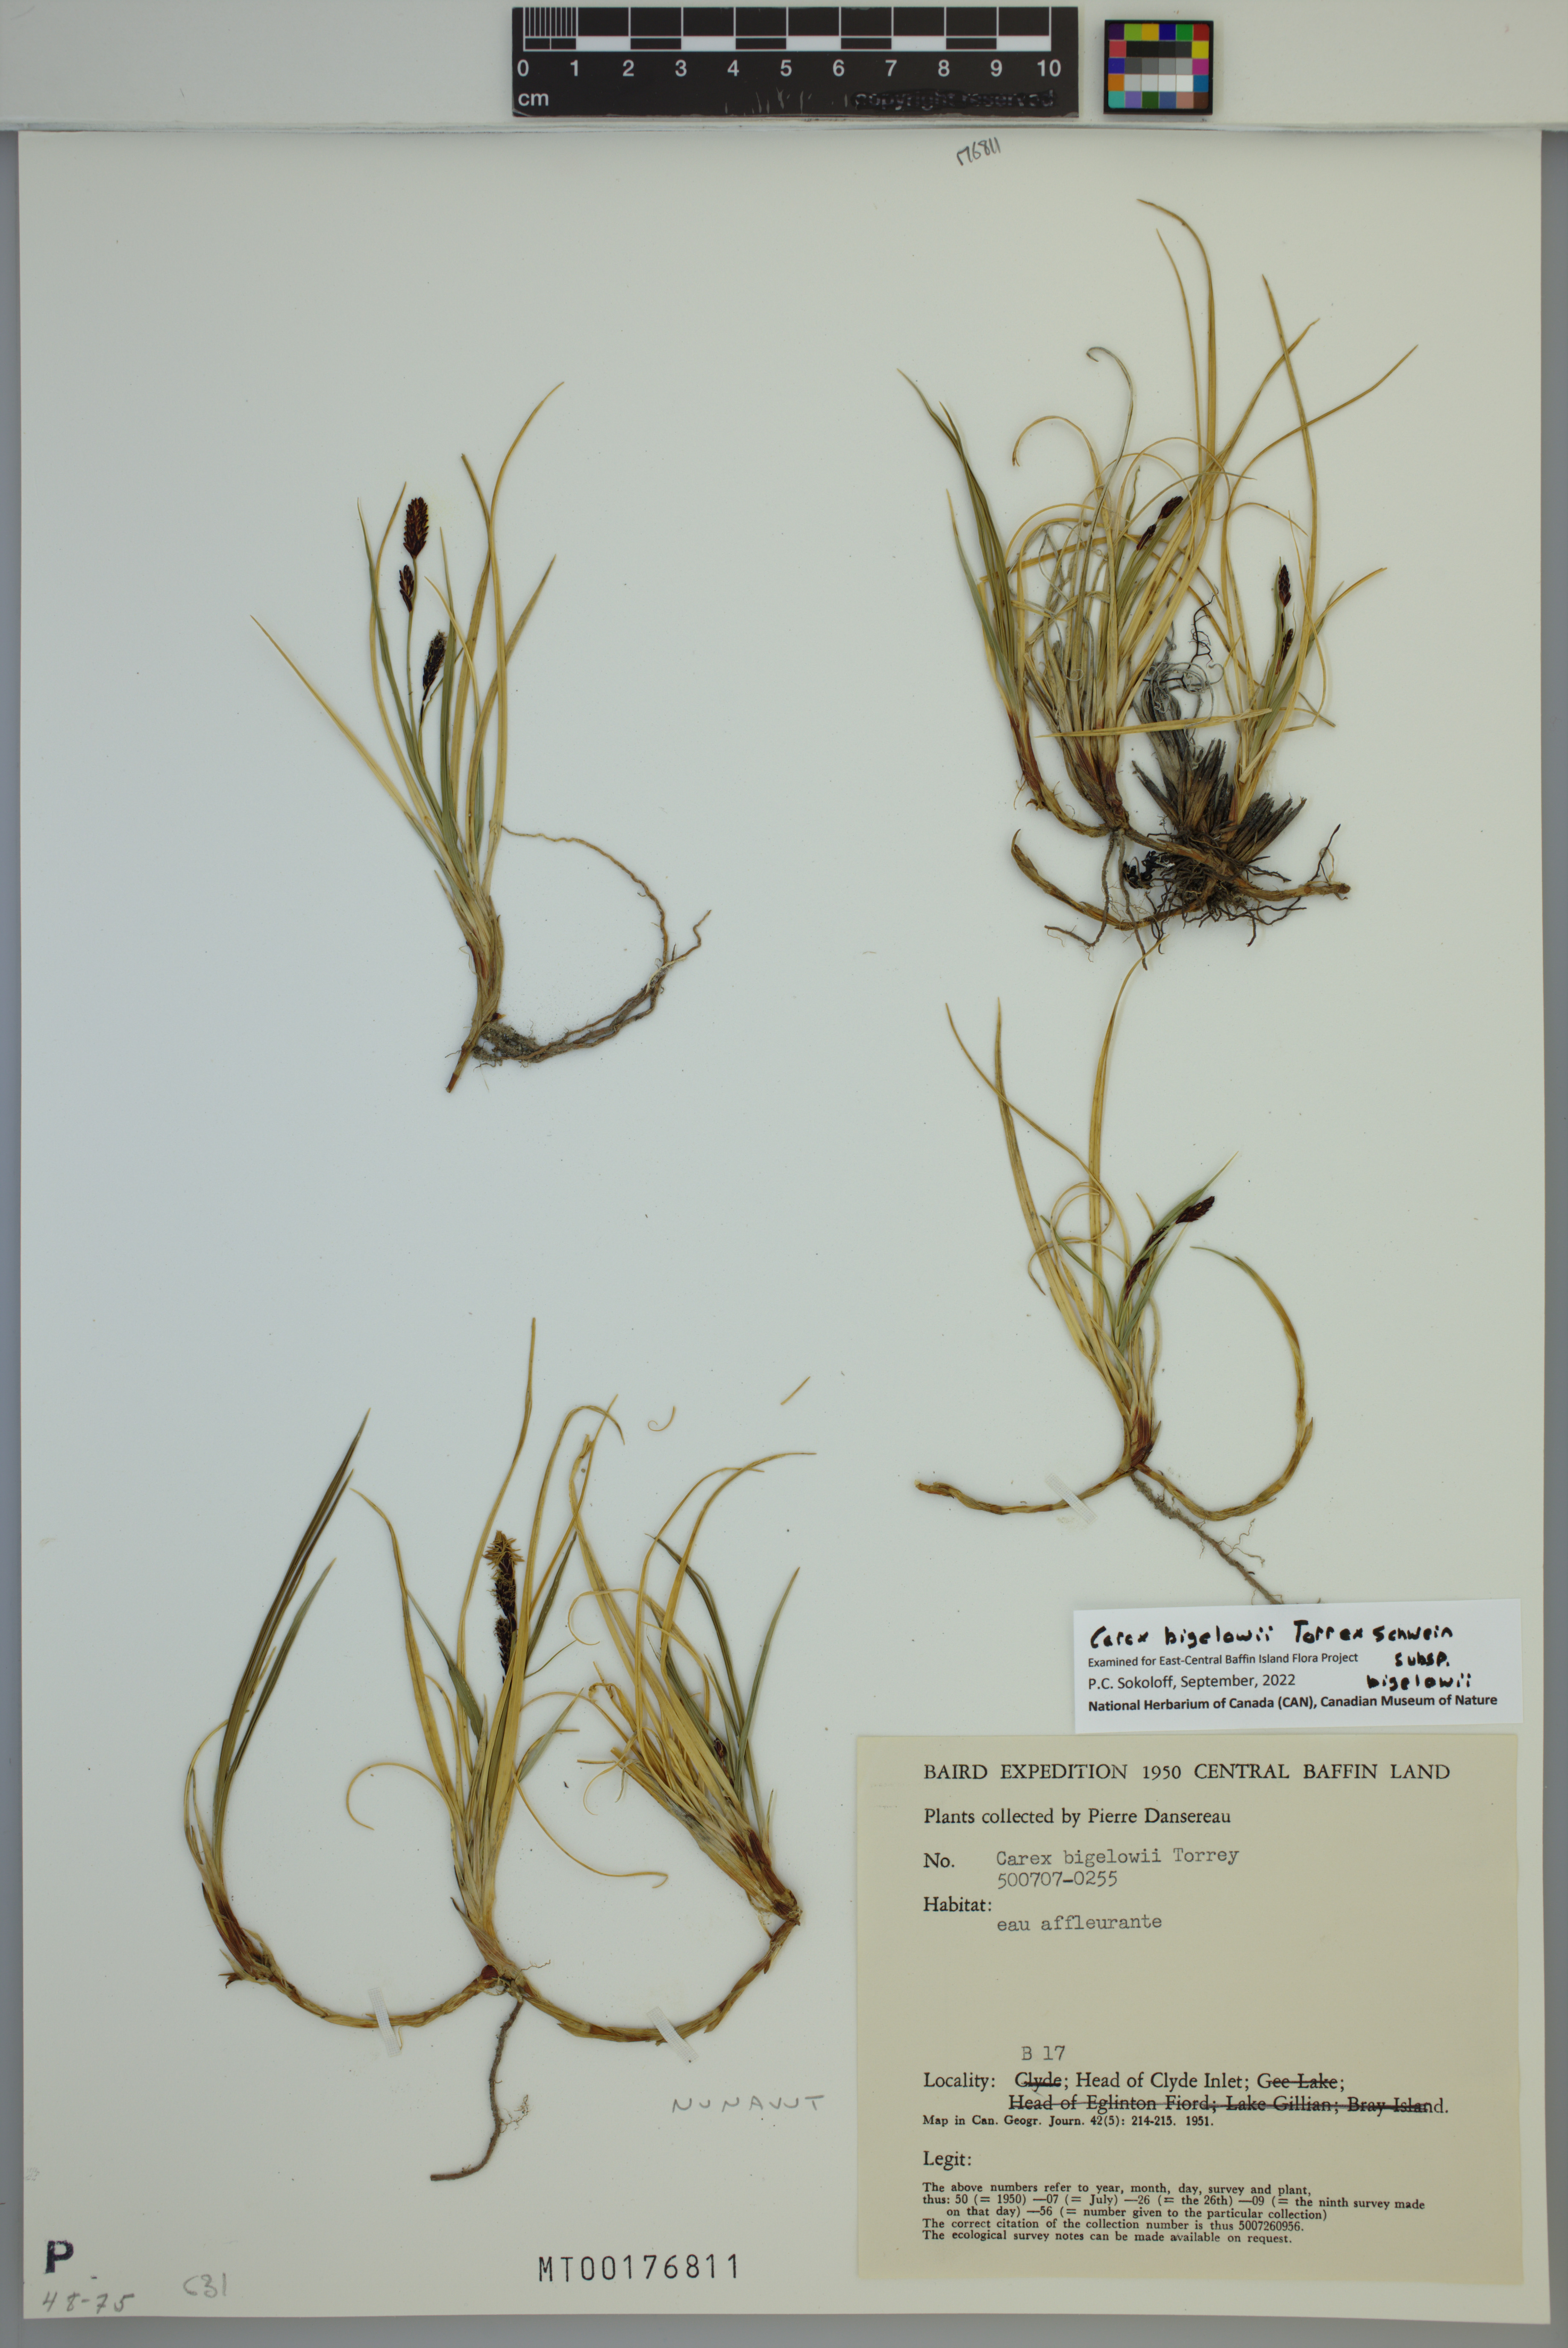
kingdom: Plantae
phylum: Tracheophyta
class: Liliopsida
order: Poales
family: Cyperaceae
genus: Carex
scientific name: Carex bigelowii
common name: Stiff sedge
